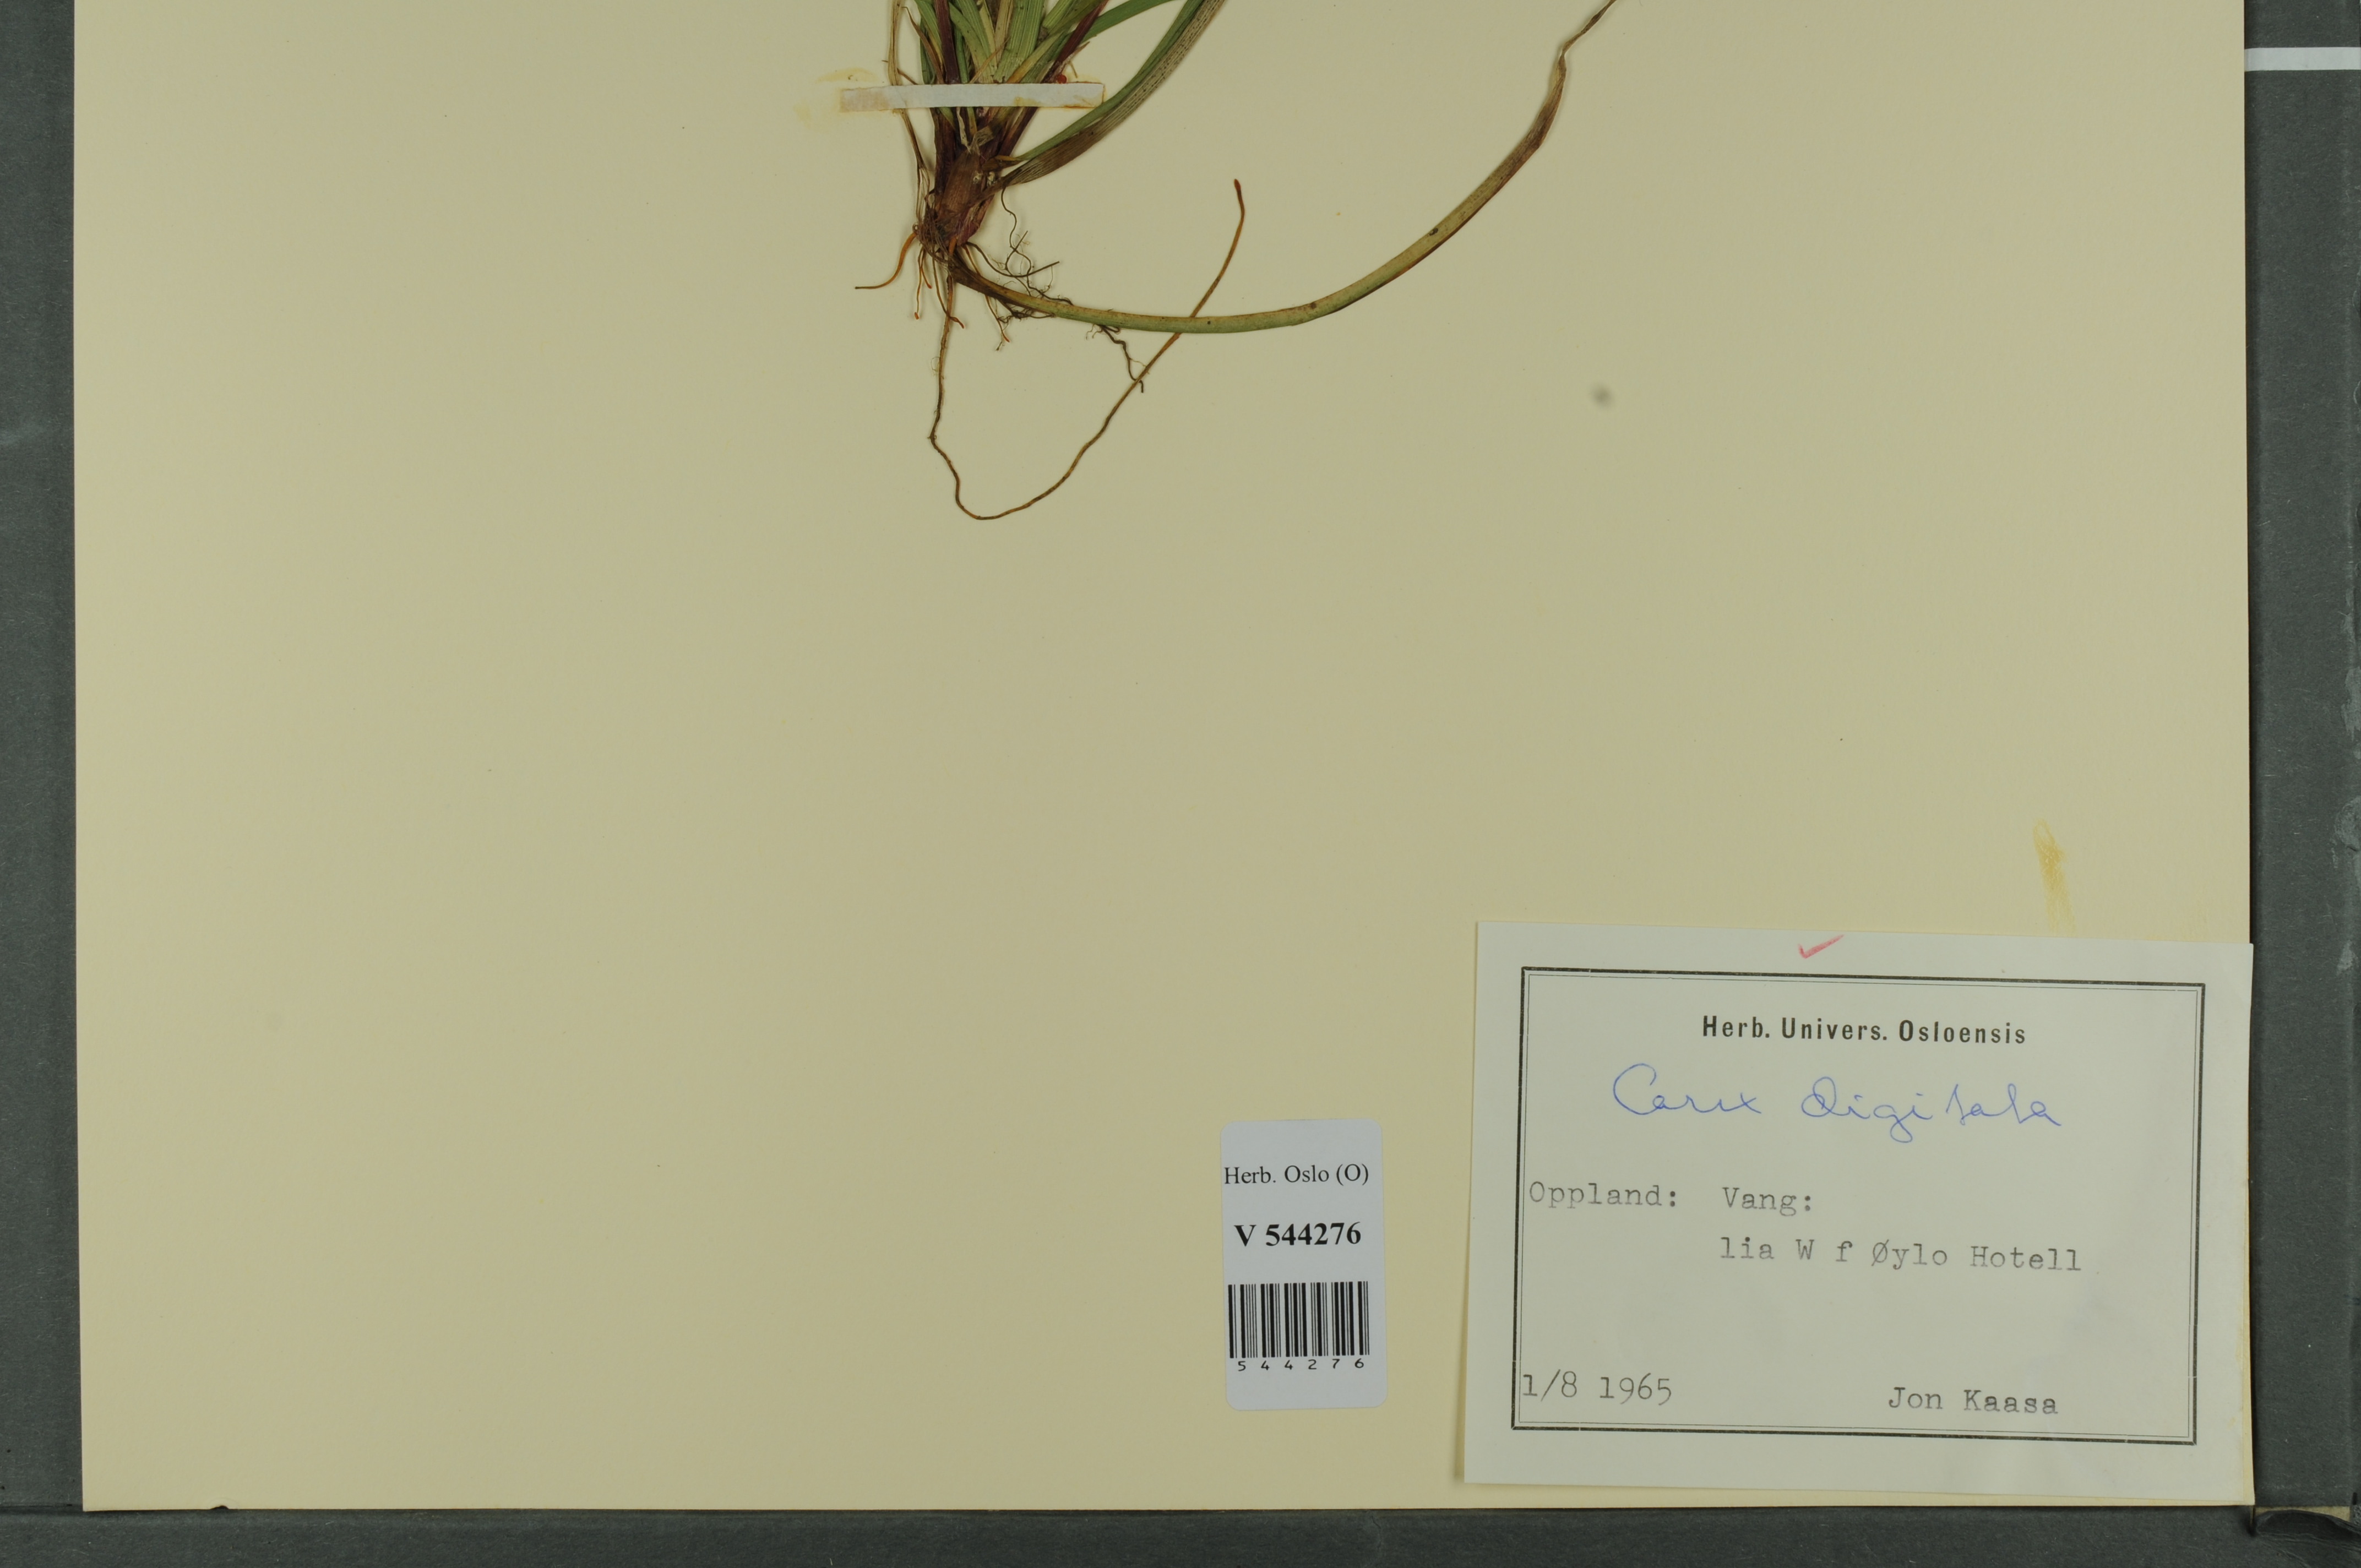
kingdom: Plantae
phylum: Tracheophyta
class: Liliopsida
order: Poales
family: Cyperaceae
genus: Carex
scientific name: Carex digitata
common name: Fingered sedge
